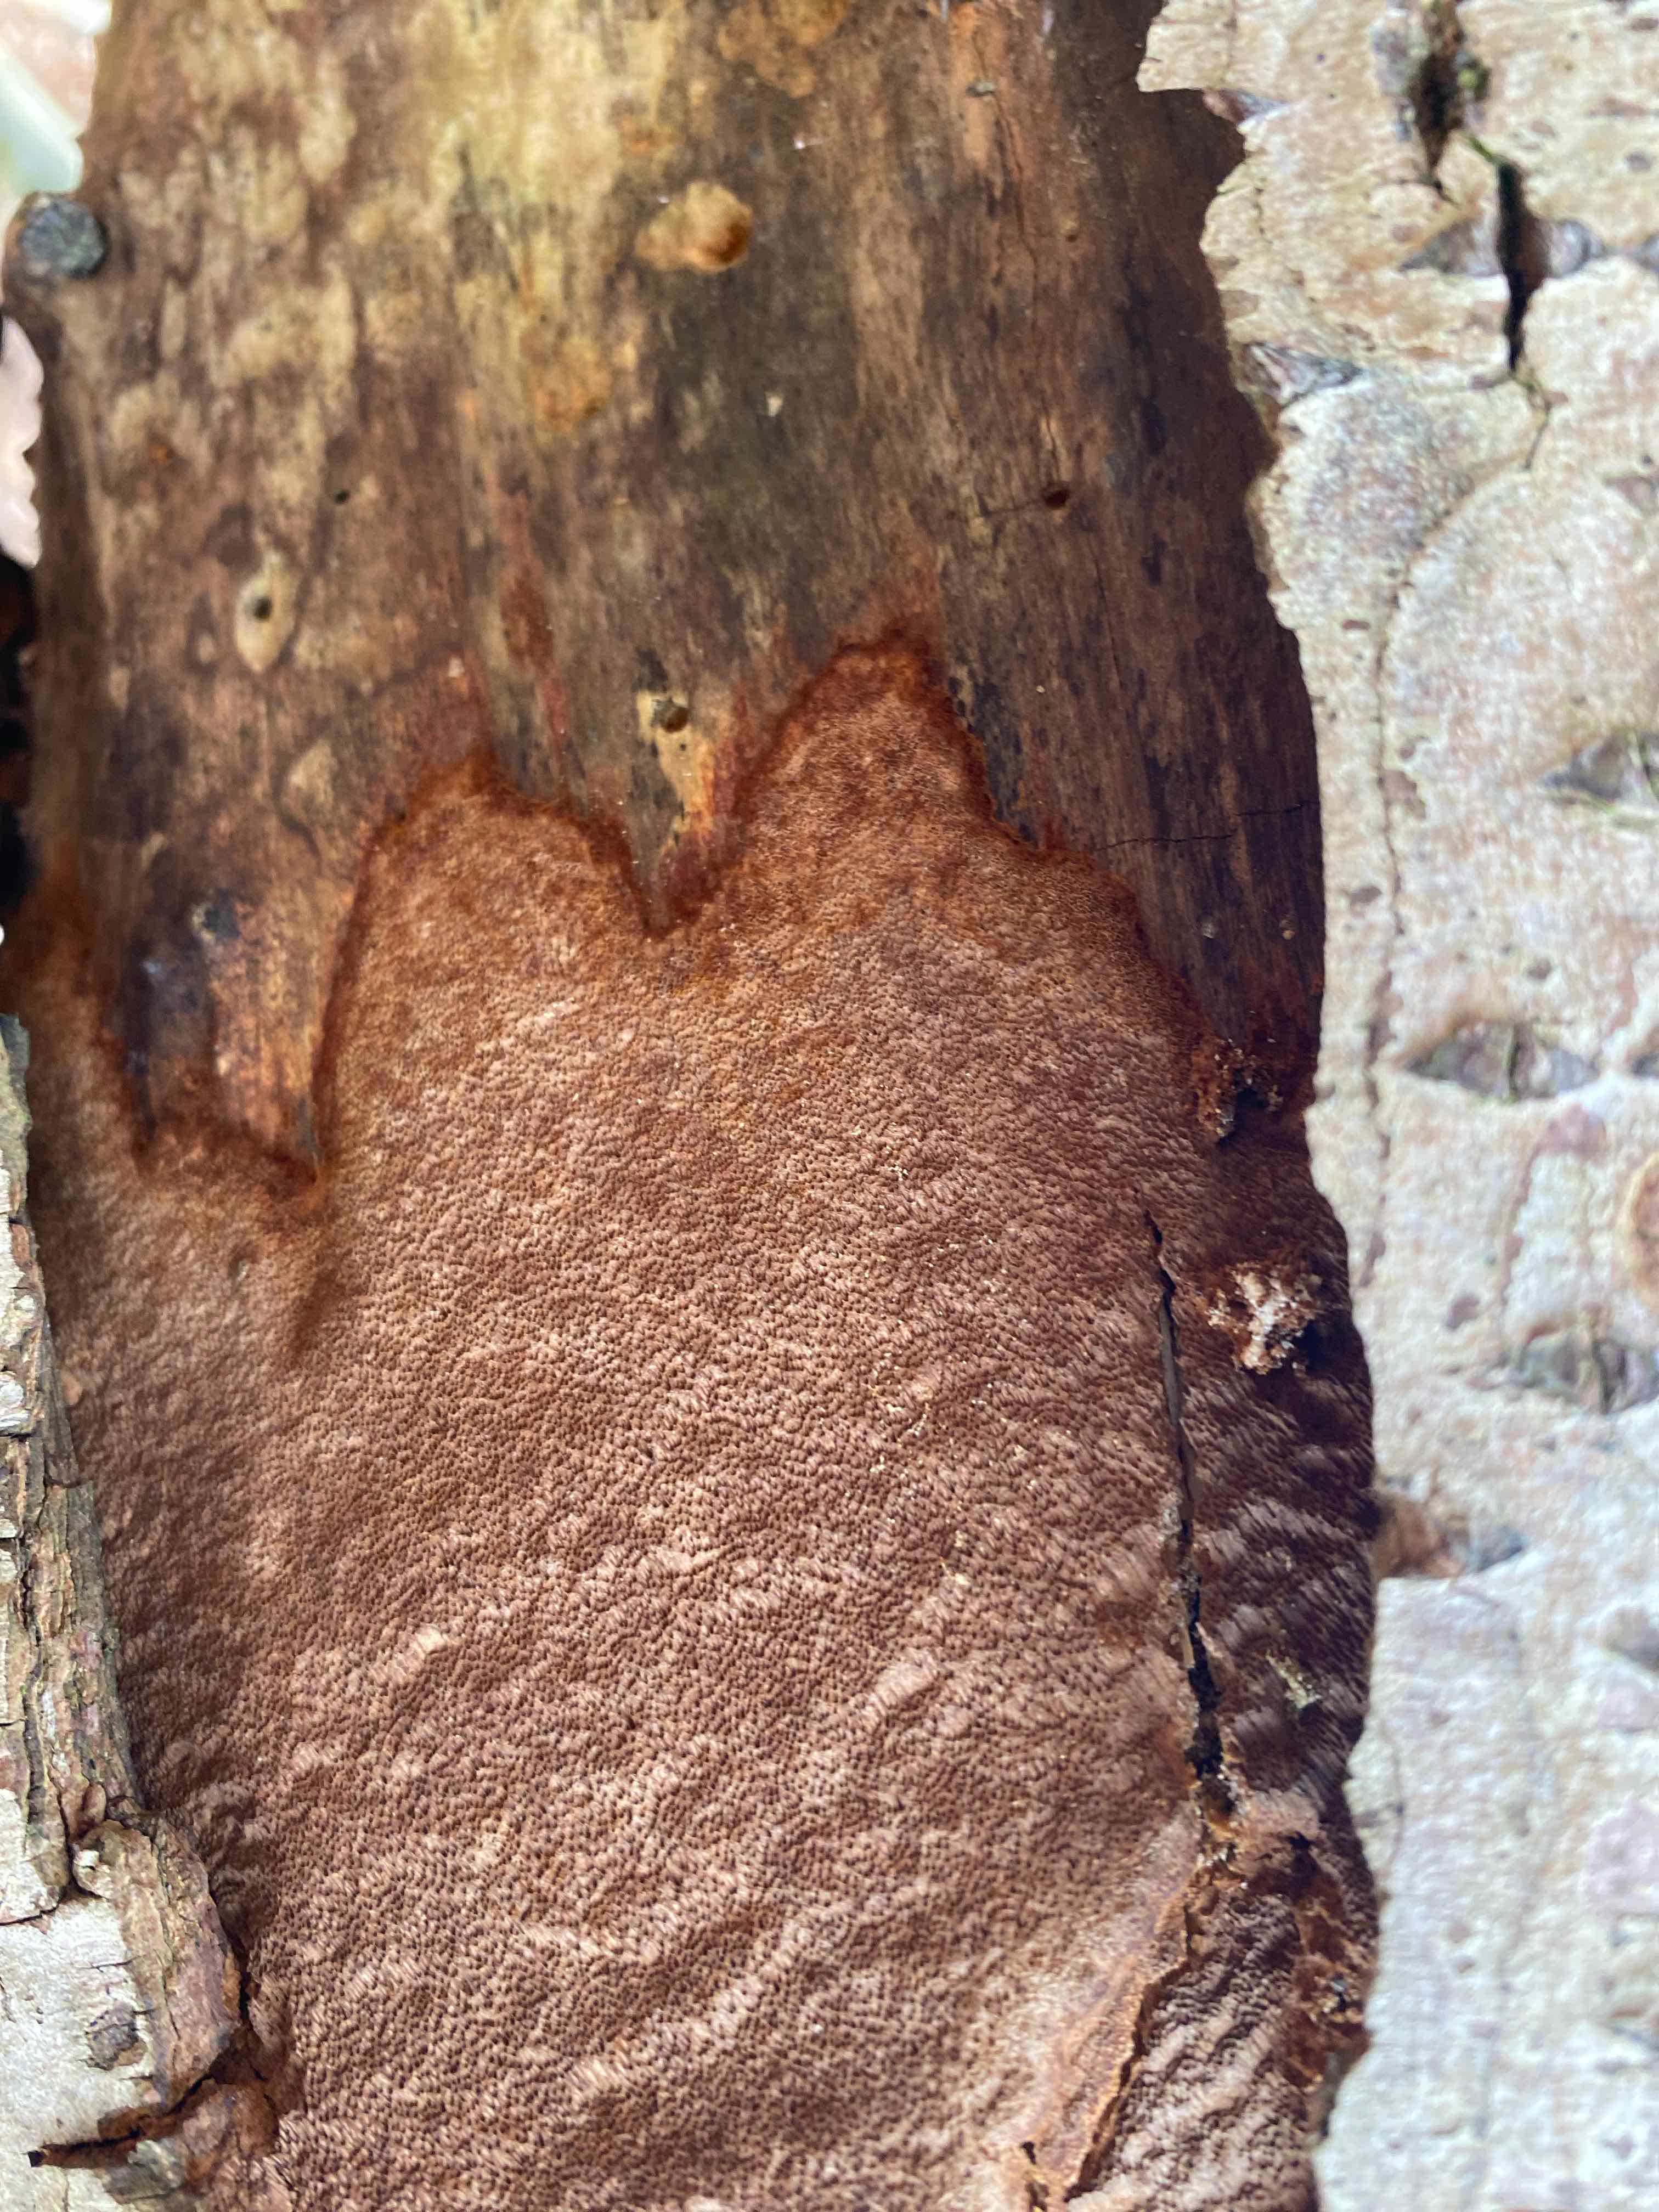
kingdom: Fungi
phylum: Basidiomycota
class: Agaricomycetes
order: Hymenochaetales
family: Hymenochaetaceae
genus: Fuscoporia
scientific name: Fuscoporia ferrea
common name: skorpe-ildporesvamp
